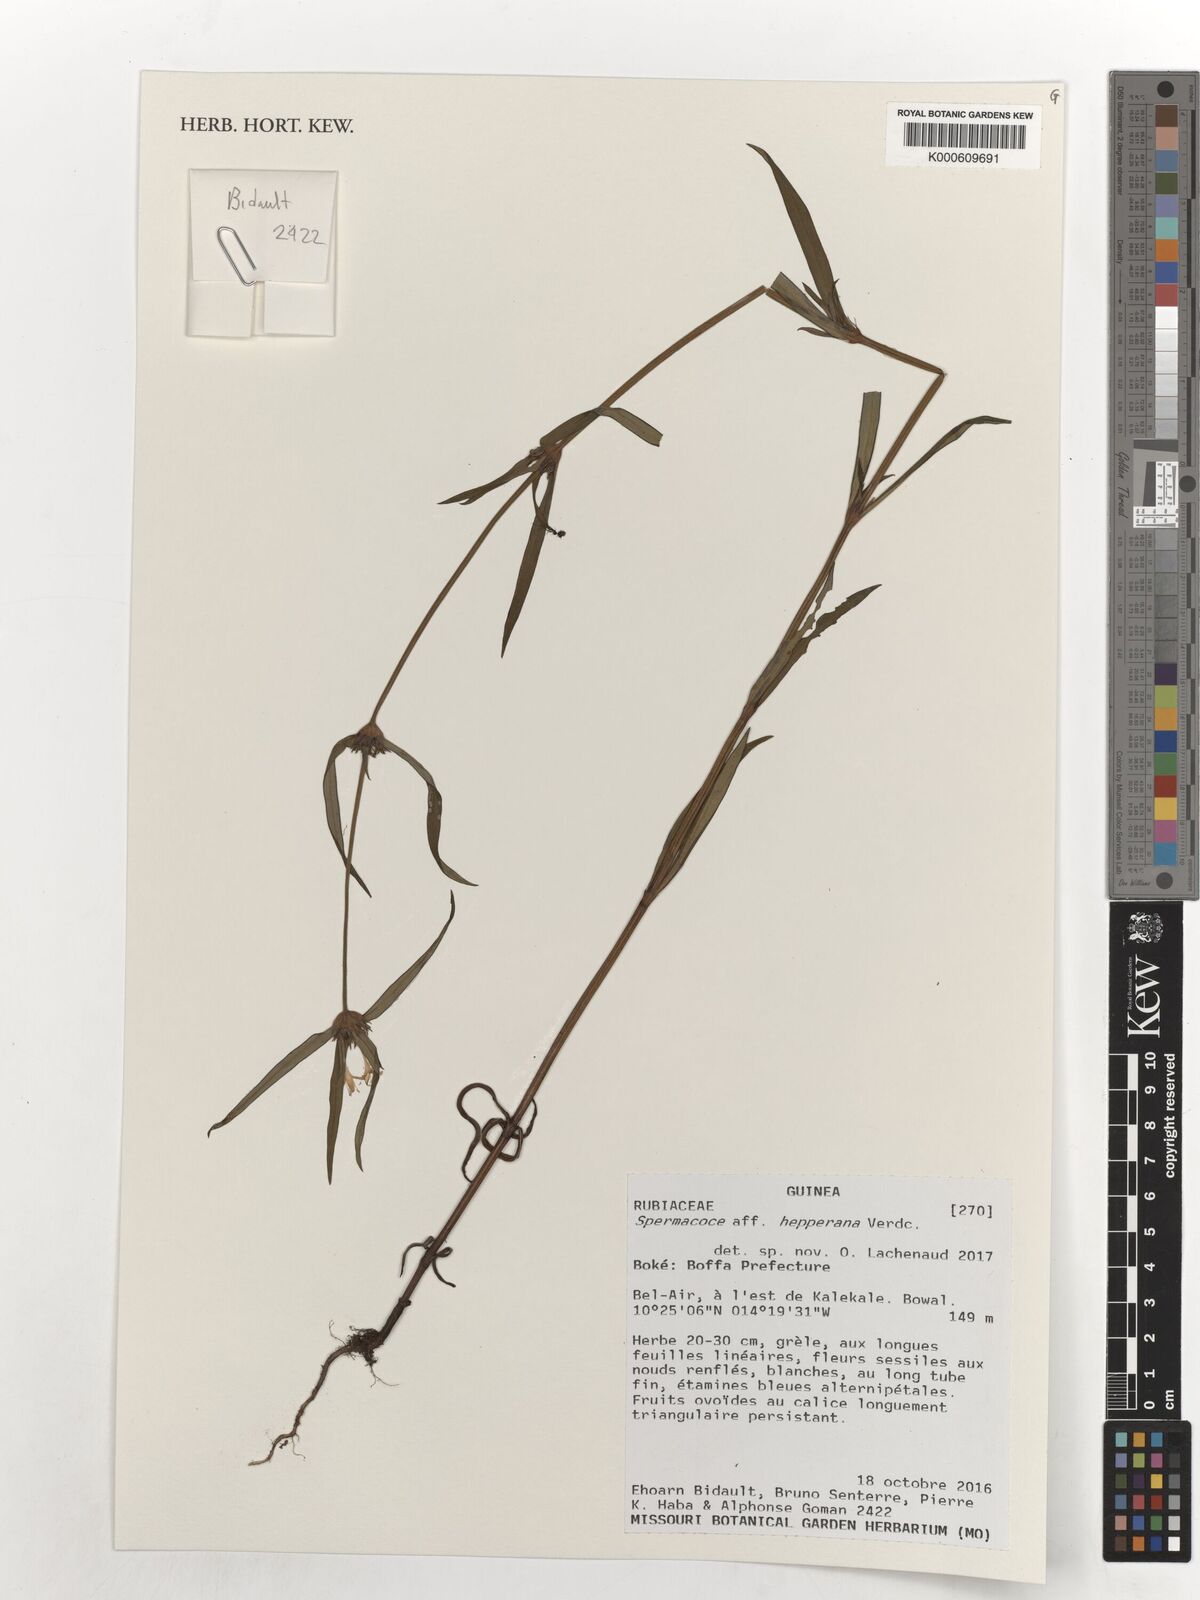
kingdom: Plantae
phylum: Tracheophyta
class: Magnoliopsida
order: Gentianales
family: Rubiaceae
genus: Spermacoce
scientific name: Spermacoce hepperiana
